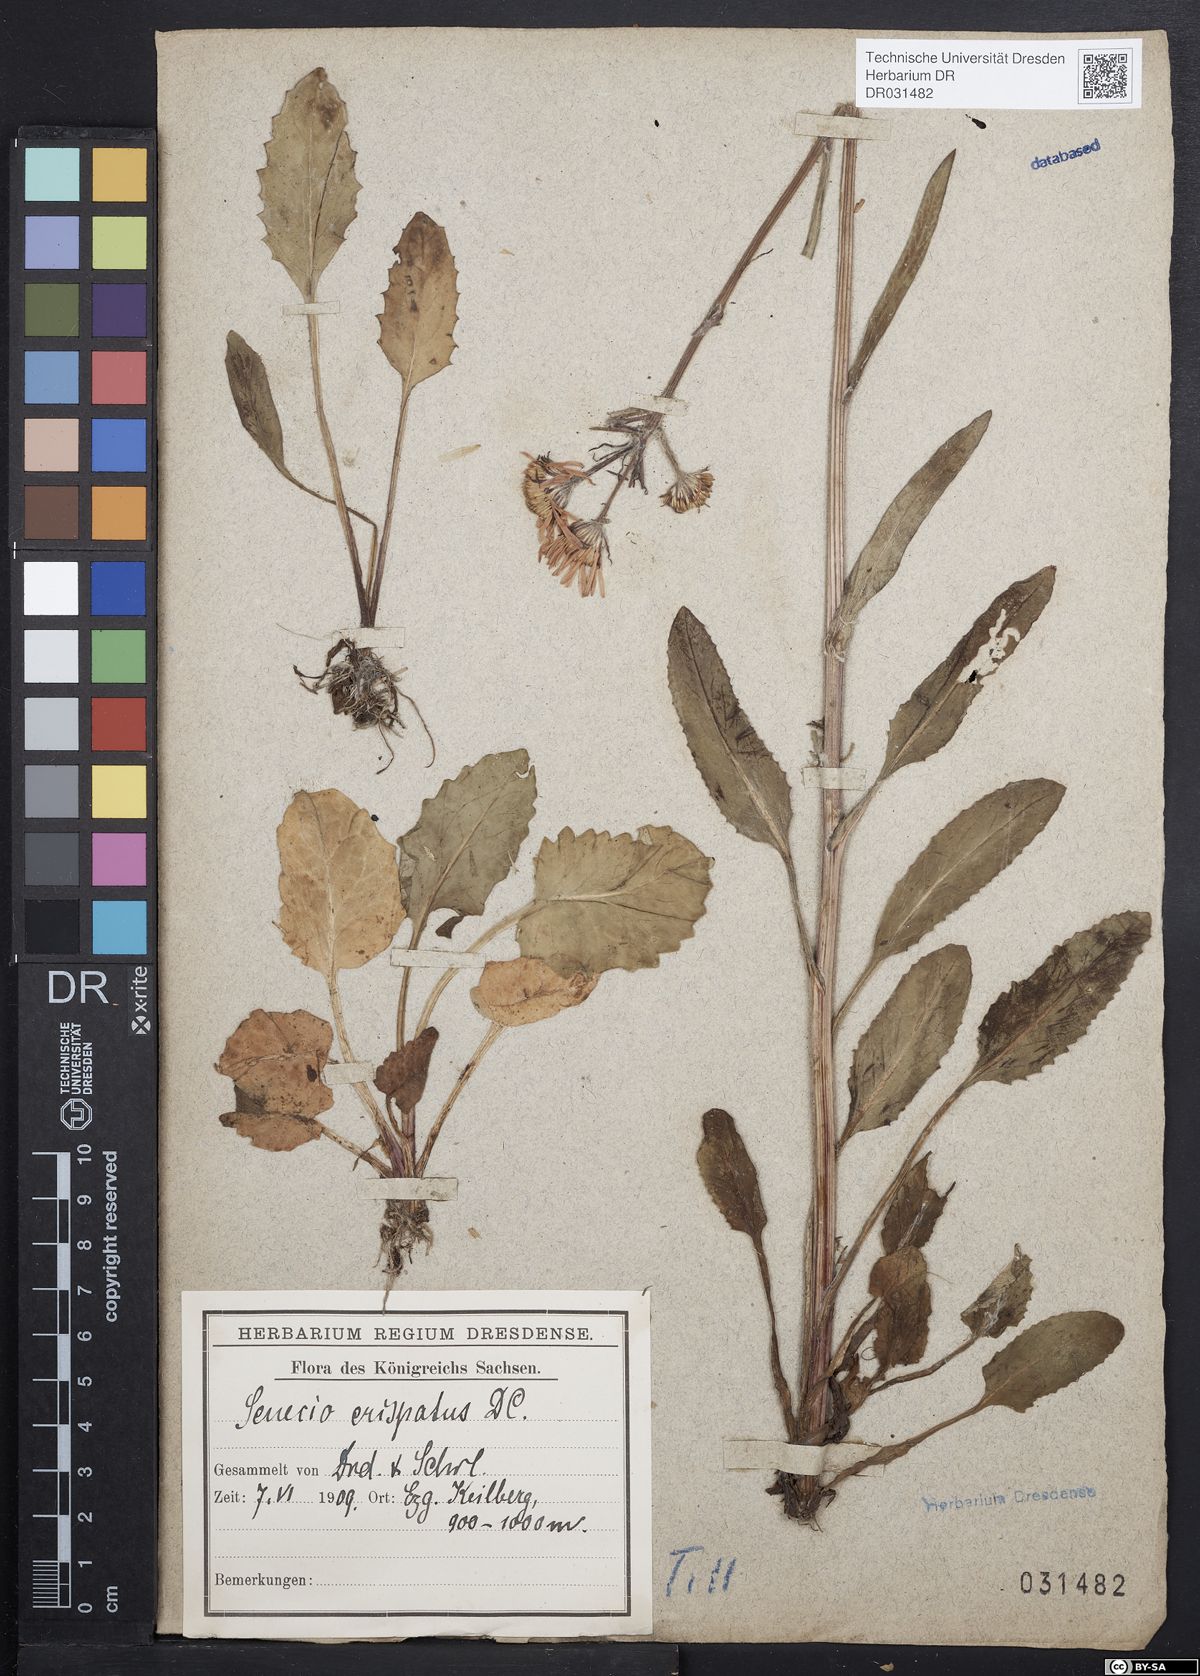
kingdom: Plantae
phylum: Tracheophyta
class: Magnoliopsida
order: Asterales
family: Asteraceae
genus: Tephroseris
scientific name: Tephroseris crispa
